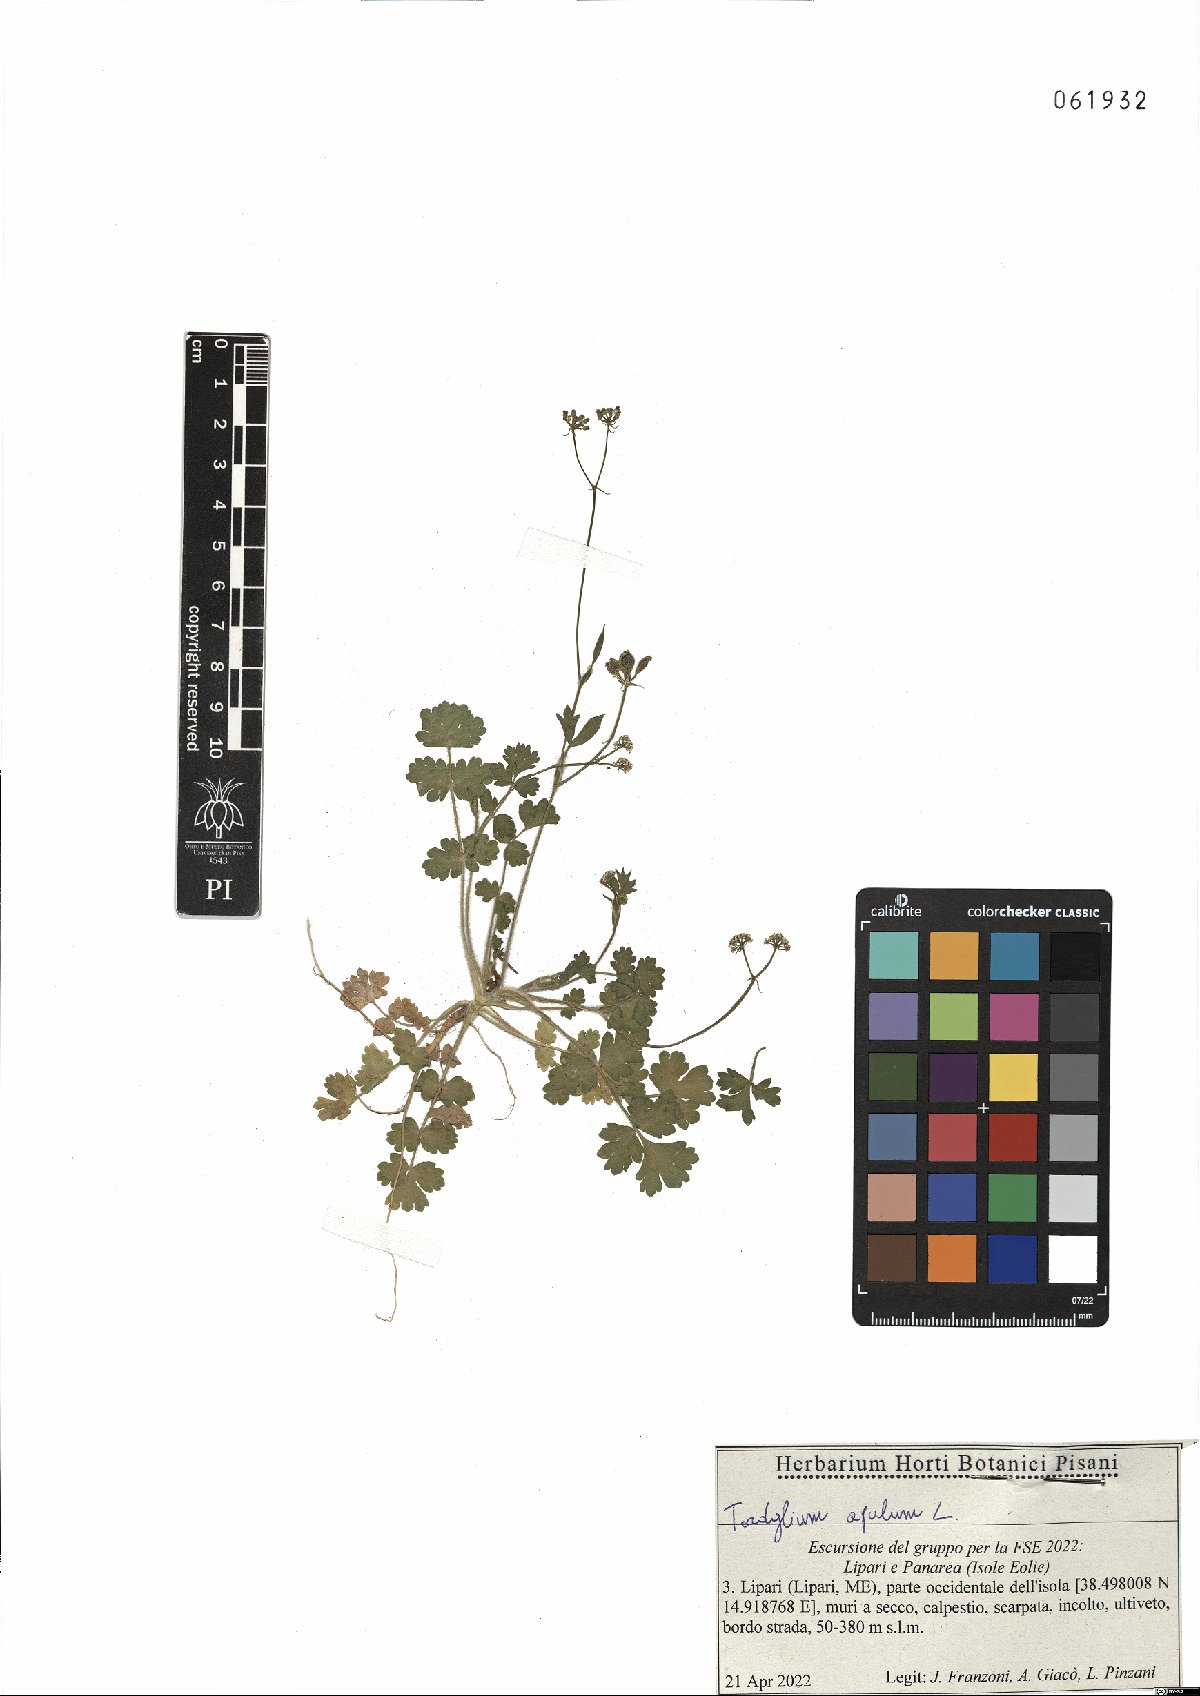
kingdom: Plantae
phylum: Tracheophyta
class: Magnoliopsida
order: Apiales
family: Apiaceae
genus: Tordylium
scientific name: Tordylium apulum
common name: Mediterranean hartwort
